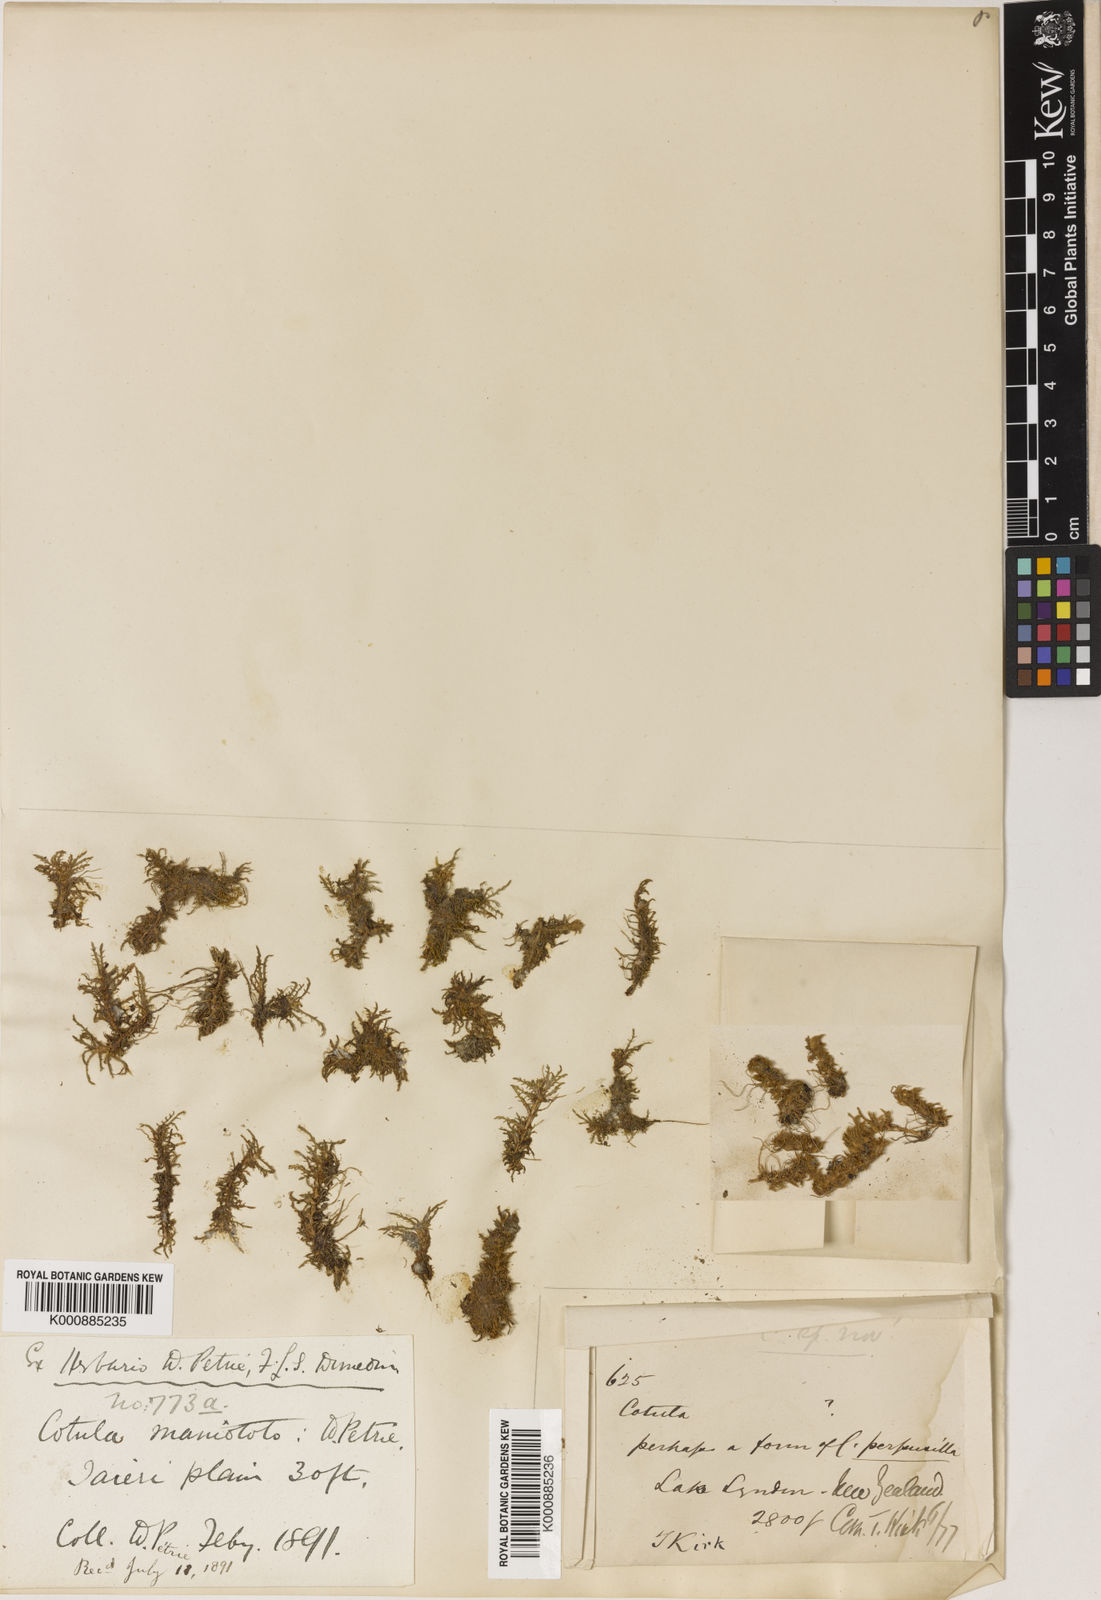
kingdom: Plantae
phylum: Tracheophyta
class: Magnoliopsida
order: Asterales
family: Asteraceae
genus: Leptinella
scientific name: Leptinella
